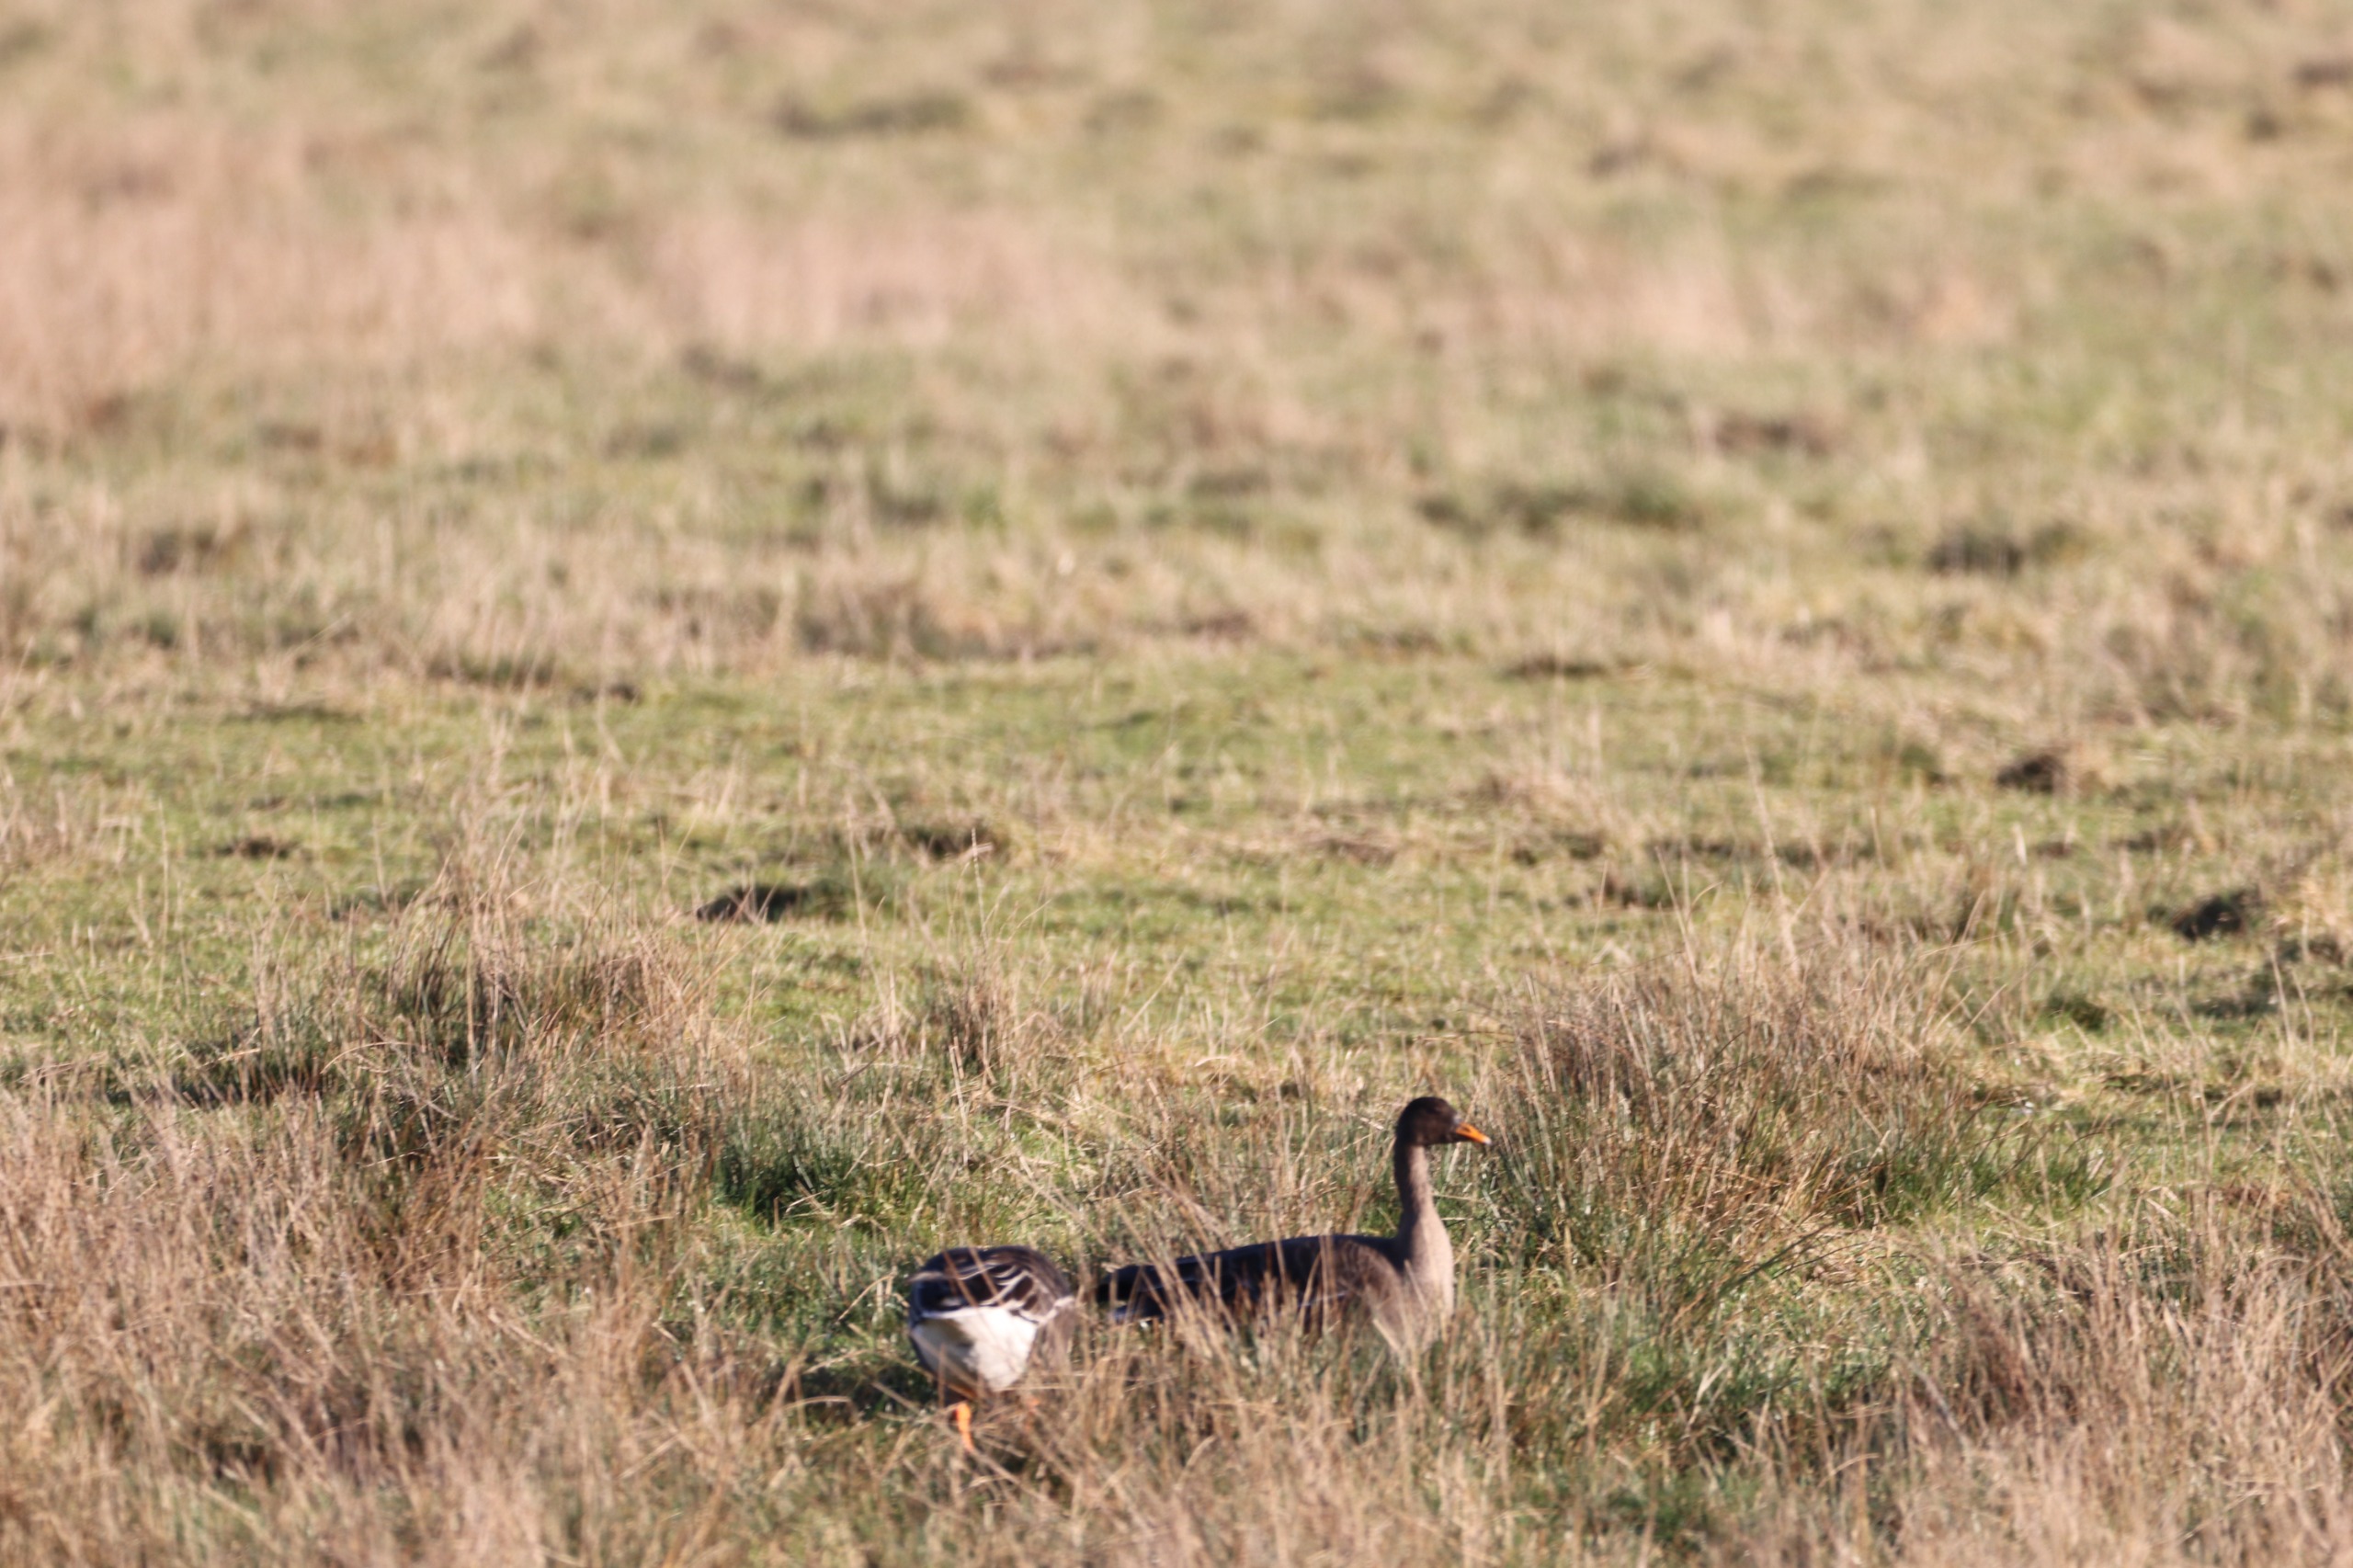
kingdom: Animalia
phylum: Chordata
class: Aves
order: Anseriformes
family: Anatidae
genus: Anser
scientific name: Anser fabalis
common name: Tajgasædgås
